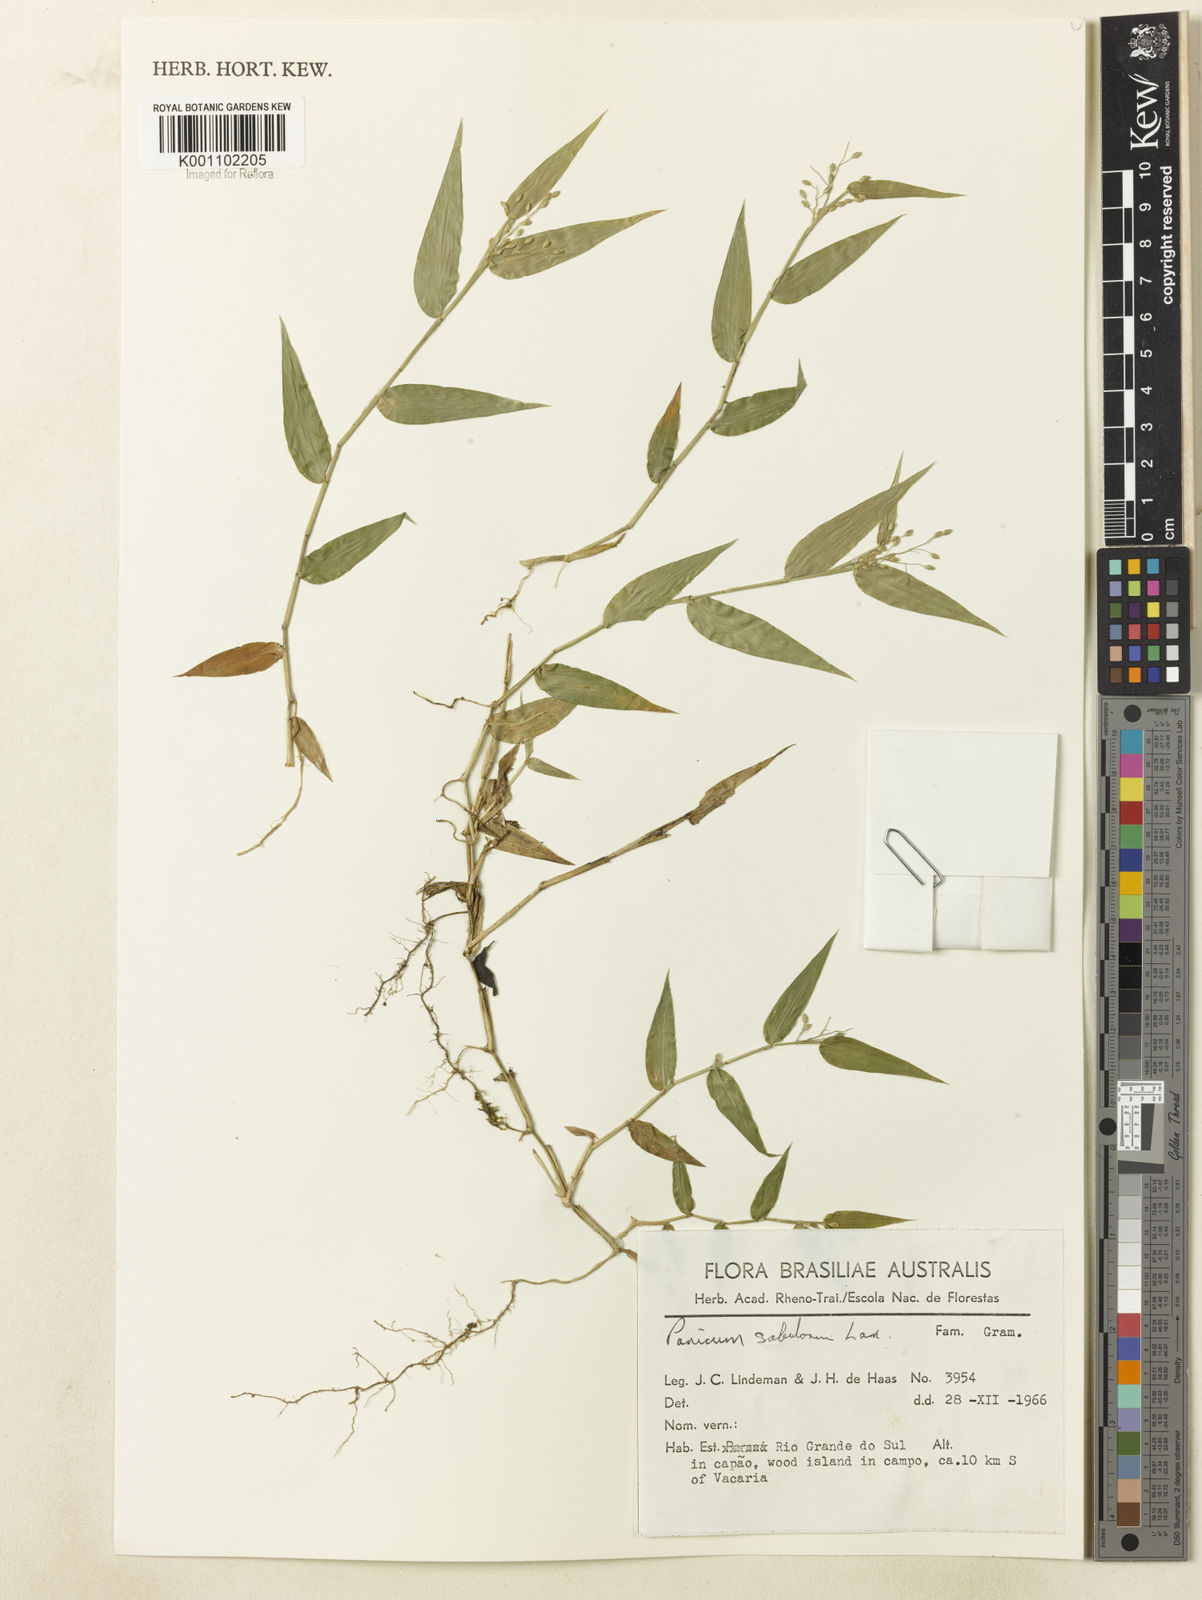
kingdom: Plantae
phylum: Tracheophyta
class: Liliopsida
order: Poales
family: Poaceae
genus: Dichanthelium
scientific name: Dichanthelium sabulorum
